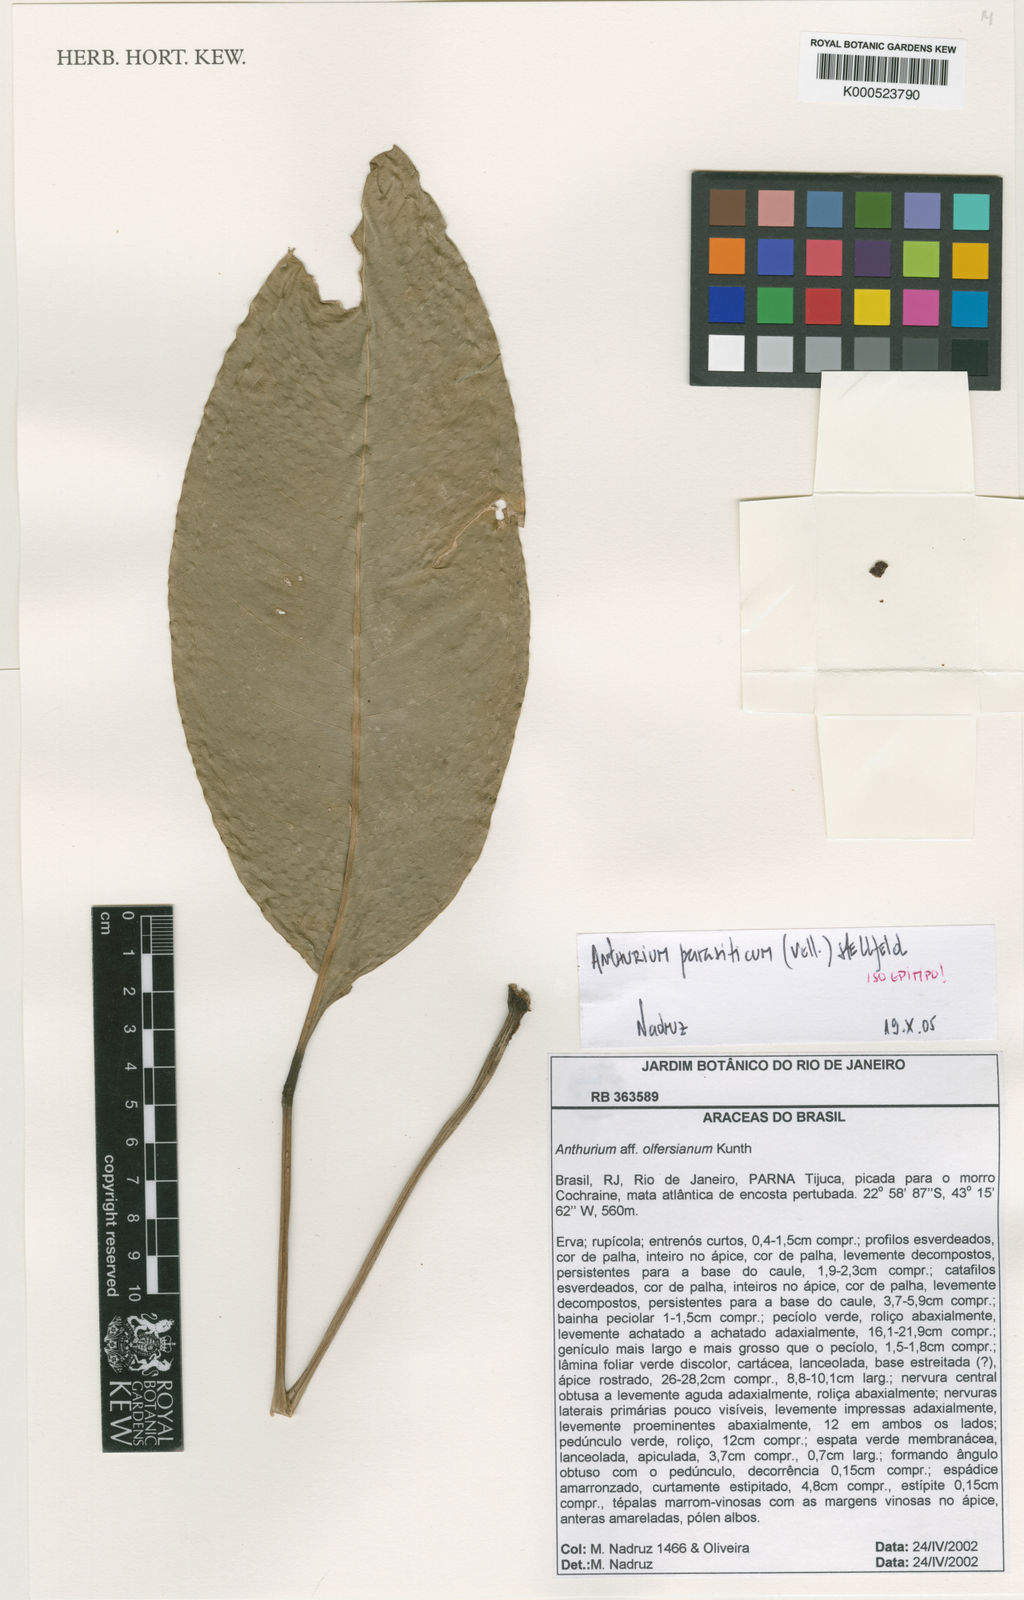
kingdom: Plantae
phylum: Tracheophyta
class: Liliopsida
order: Alismatales
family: Araceae
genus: Anthurium
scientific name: Anthurium parasiticum
